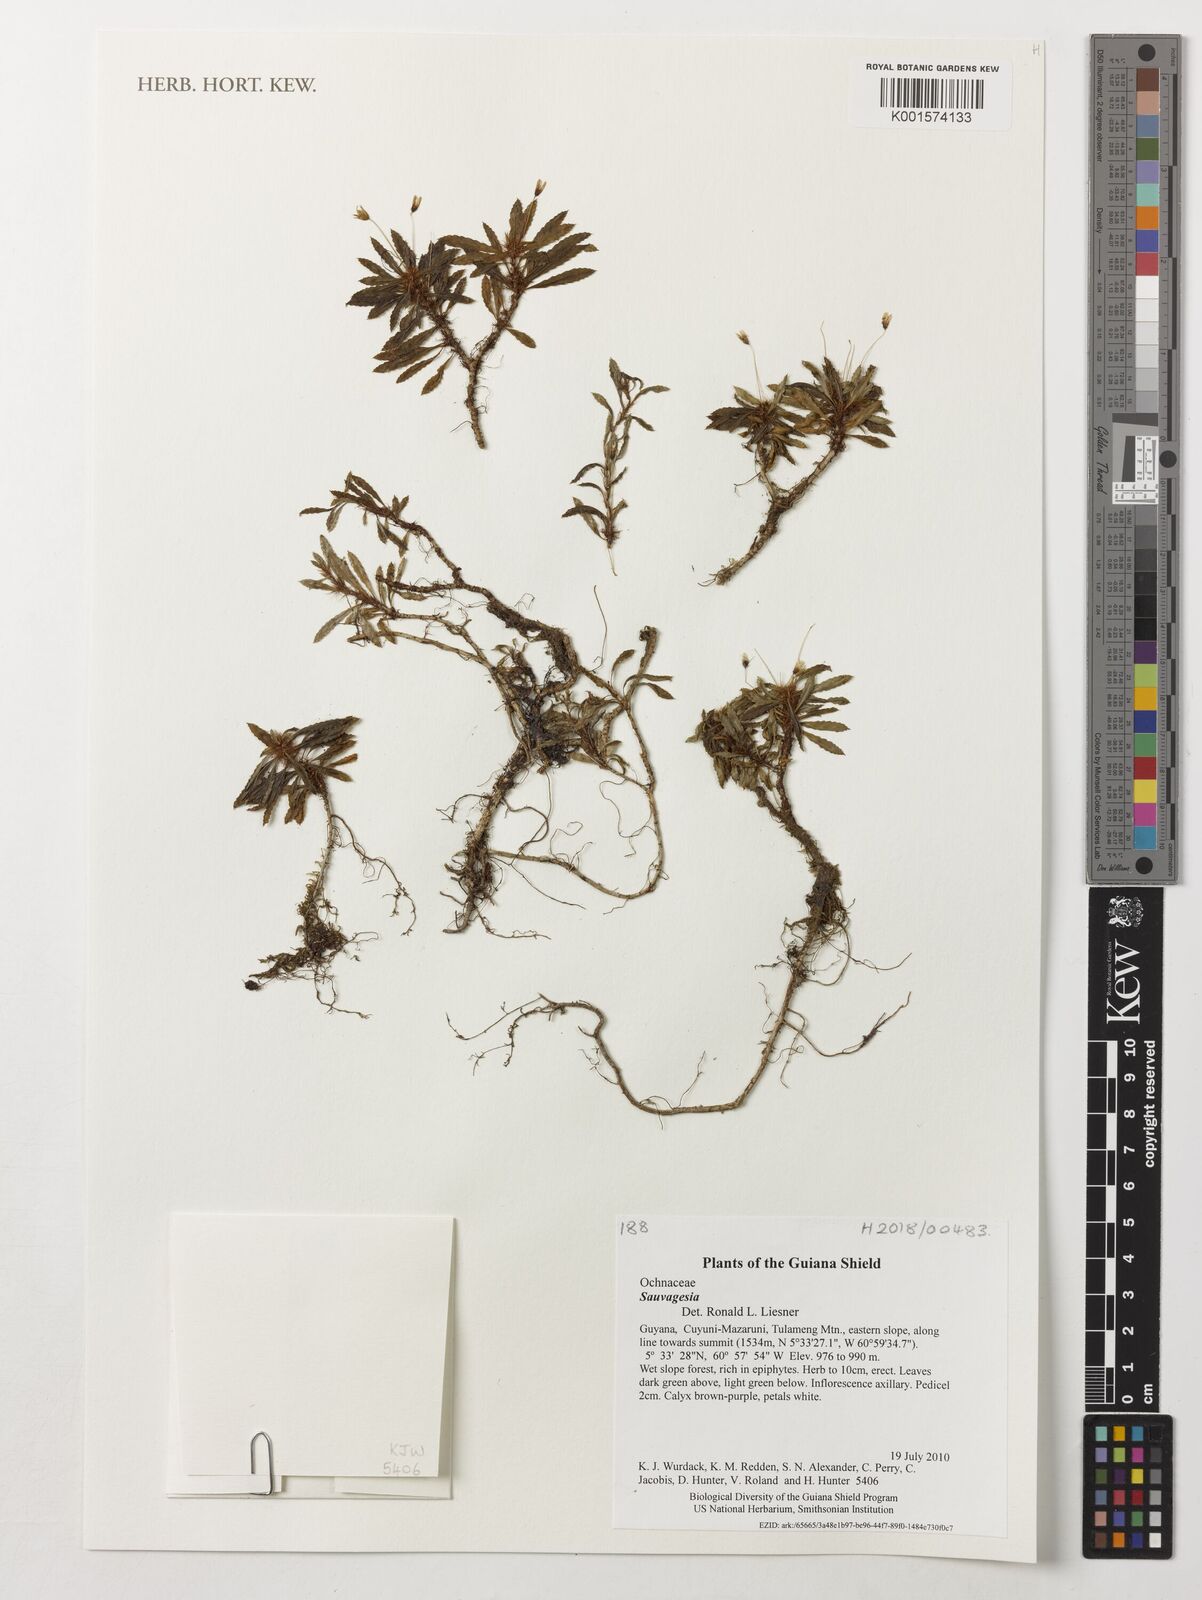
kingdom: Plantae
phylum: Tracheophyta
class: Magnoliopsida
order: Malpighiales
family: Ochnaceae
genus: Sauvagesia
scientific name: Sauvagesia
